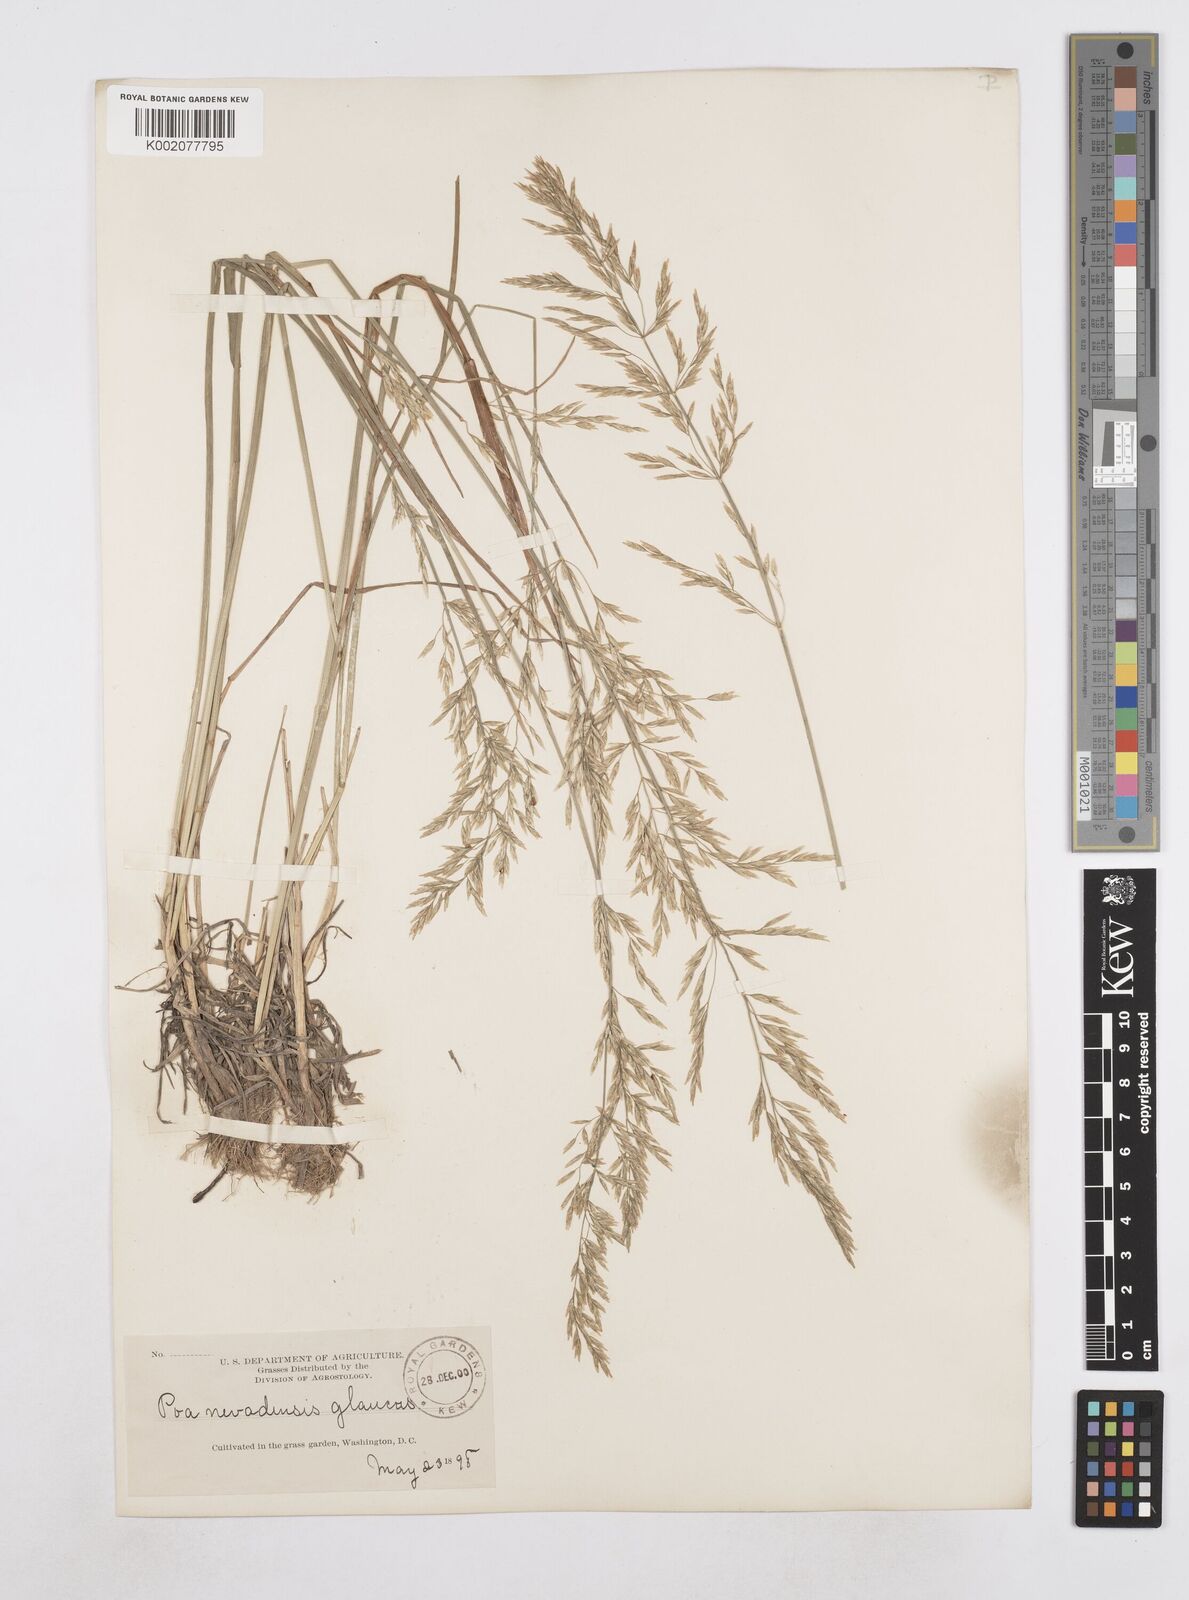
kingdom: Plantae
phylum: Tracheophyta
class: Liliopsida
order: Poales
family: Poaceae
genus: Poa
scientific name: Poa secunda
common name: Sandberg bluegrass
